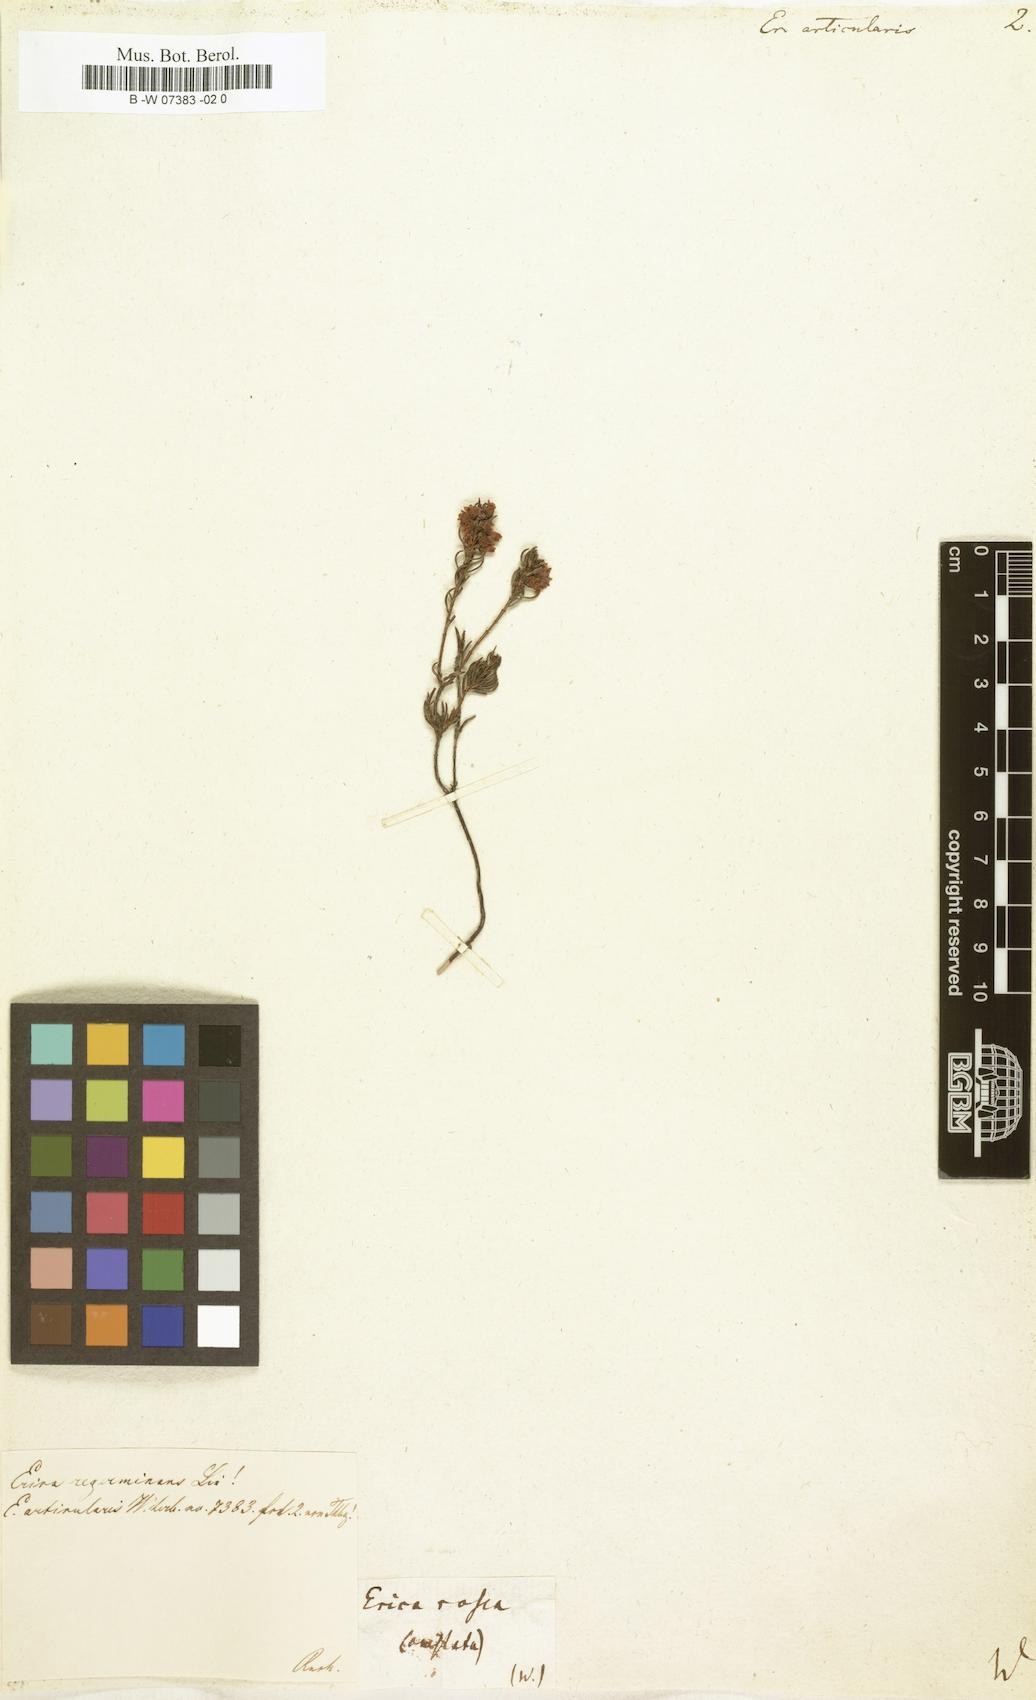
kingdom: Plantae
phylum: Tracheophyta
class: Magnoliopsida
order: Ericales
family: Ericaceae
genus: Erica
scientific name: Erica articularis
